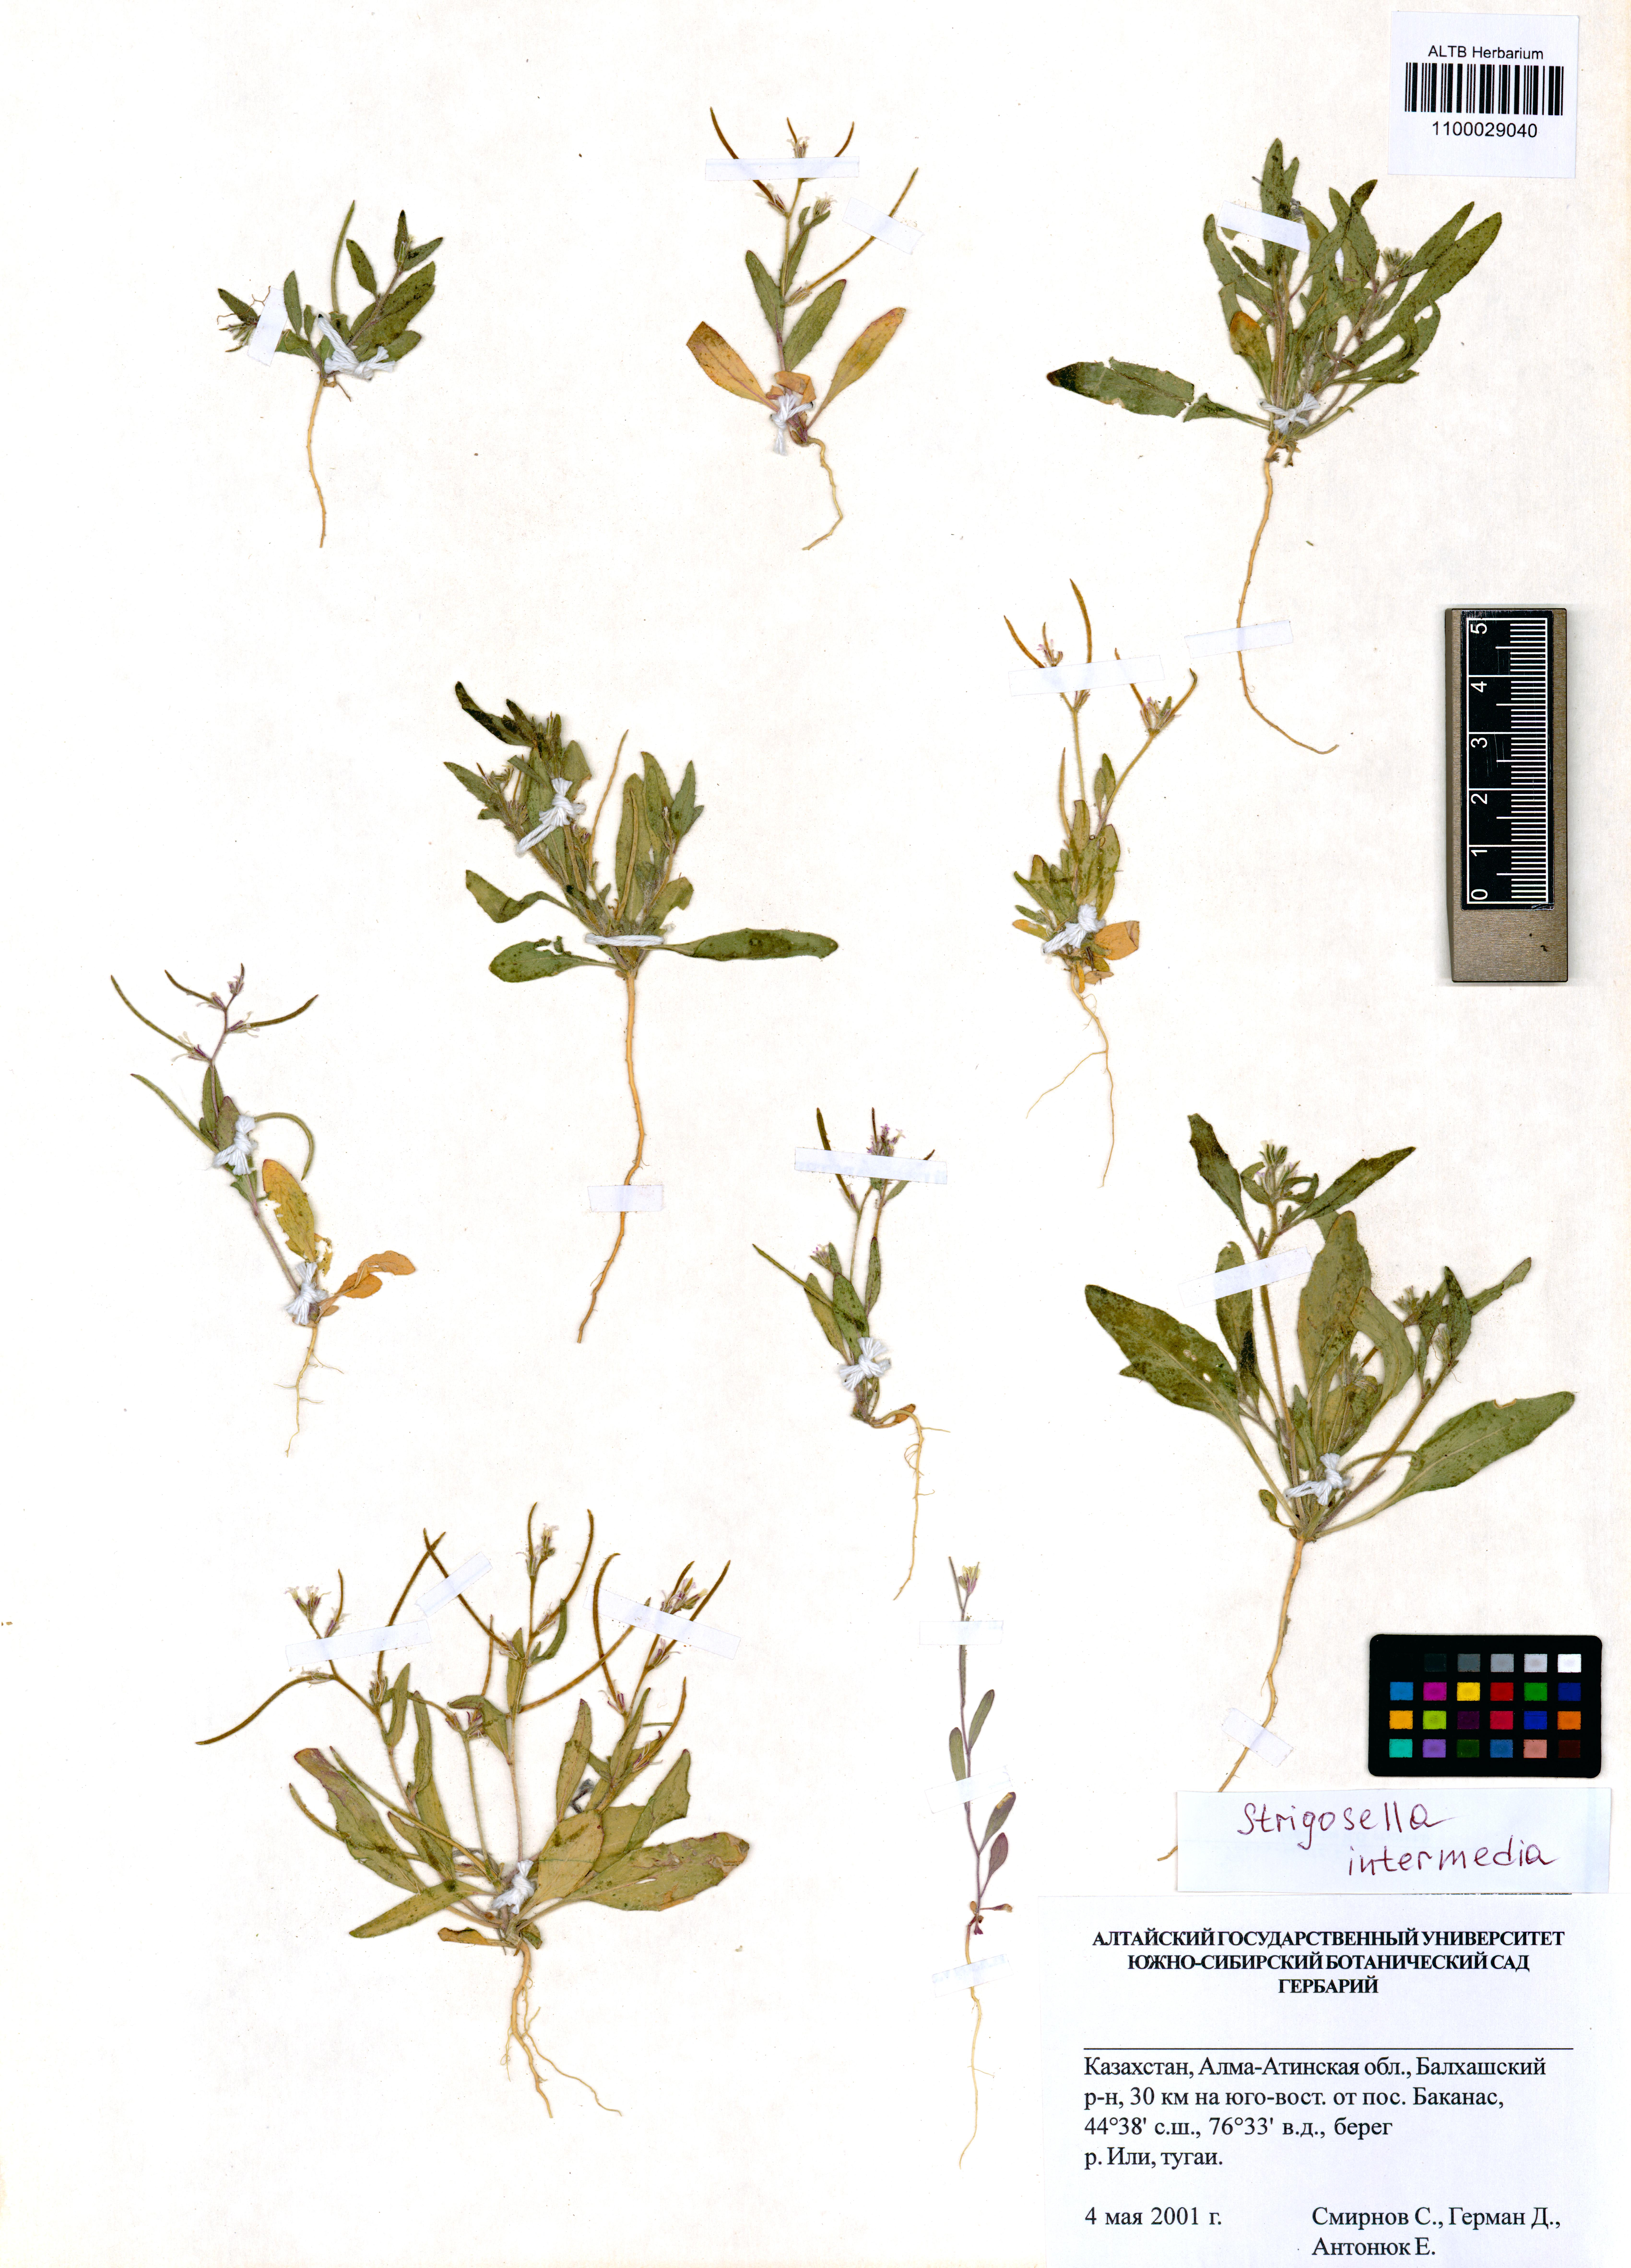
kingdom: Plantae
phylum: Tracheophyta
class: Magnoliopsida
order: Brassicales
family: Brassicaceae
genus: Strigosella
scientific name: Strigosella intermedia
